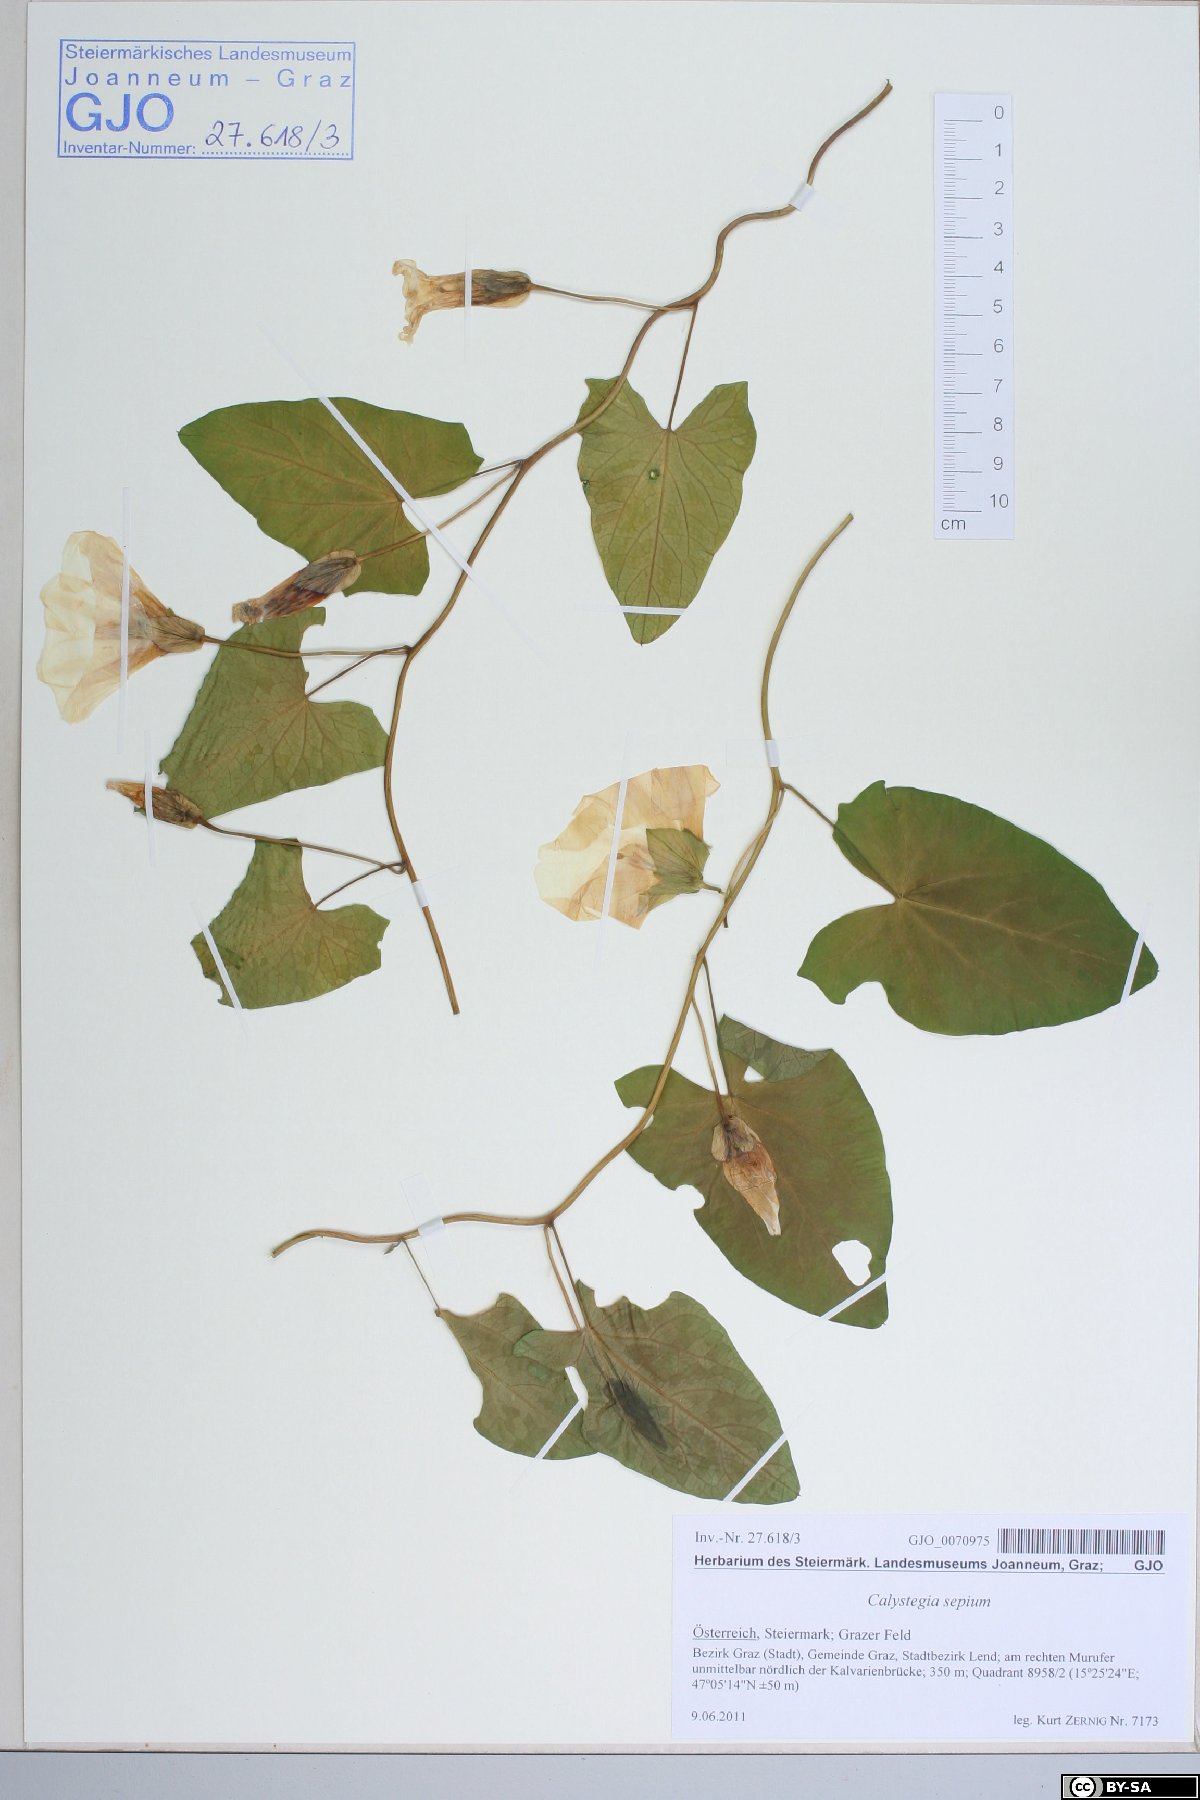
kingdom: Plantae
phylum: Tracheophyta
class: Magnoliopsida
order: Solanales
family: Convolvulaceae
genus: Calystegia
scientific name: Calystegia sepium
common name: Hedge bindweed
